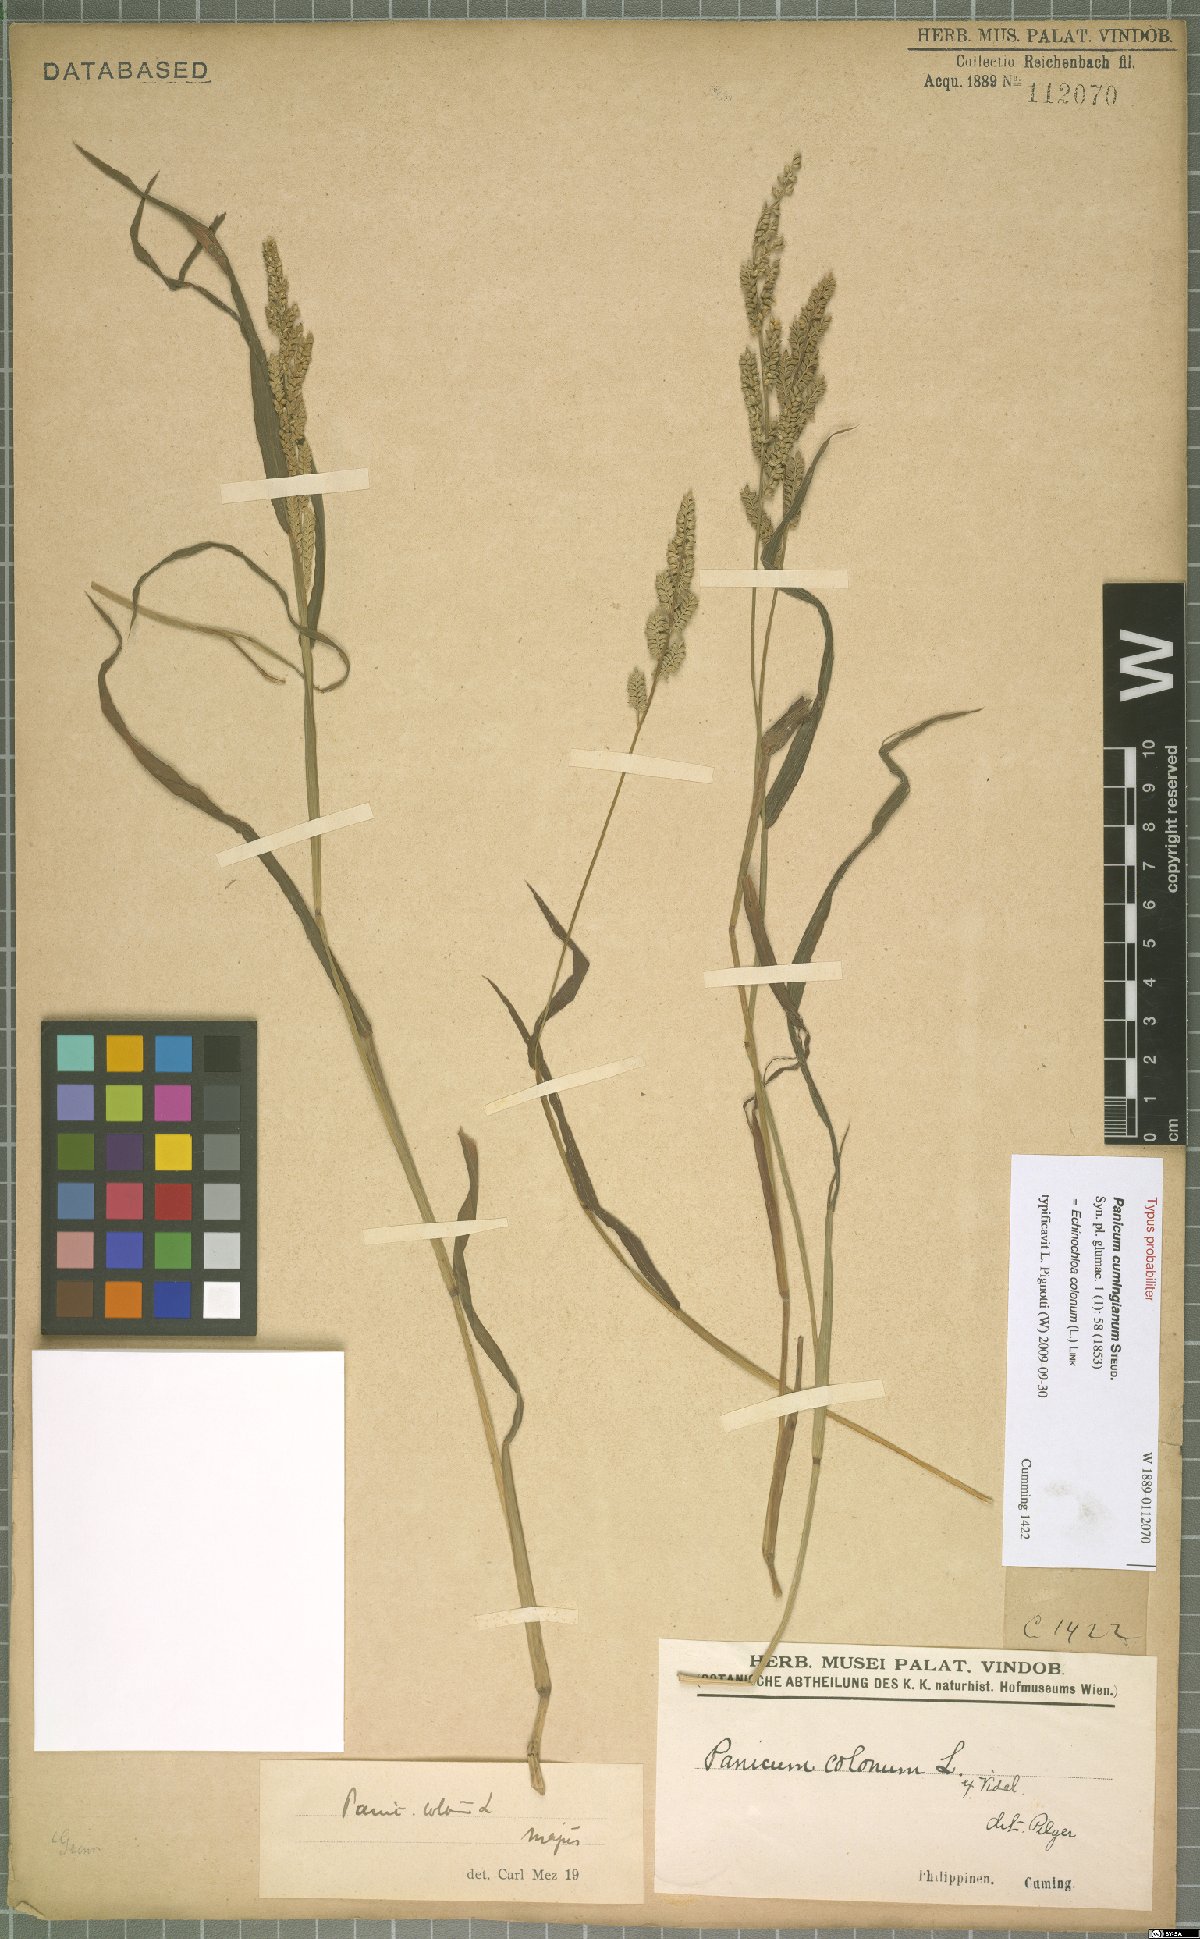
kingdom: Plantae
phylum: Tracheophyta
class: Liliopsida
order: Poales
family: Poaceae
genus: Echinochloa
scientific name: Echinochloa colonum
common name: Jungle rice
